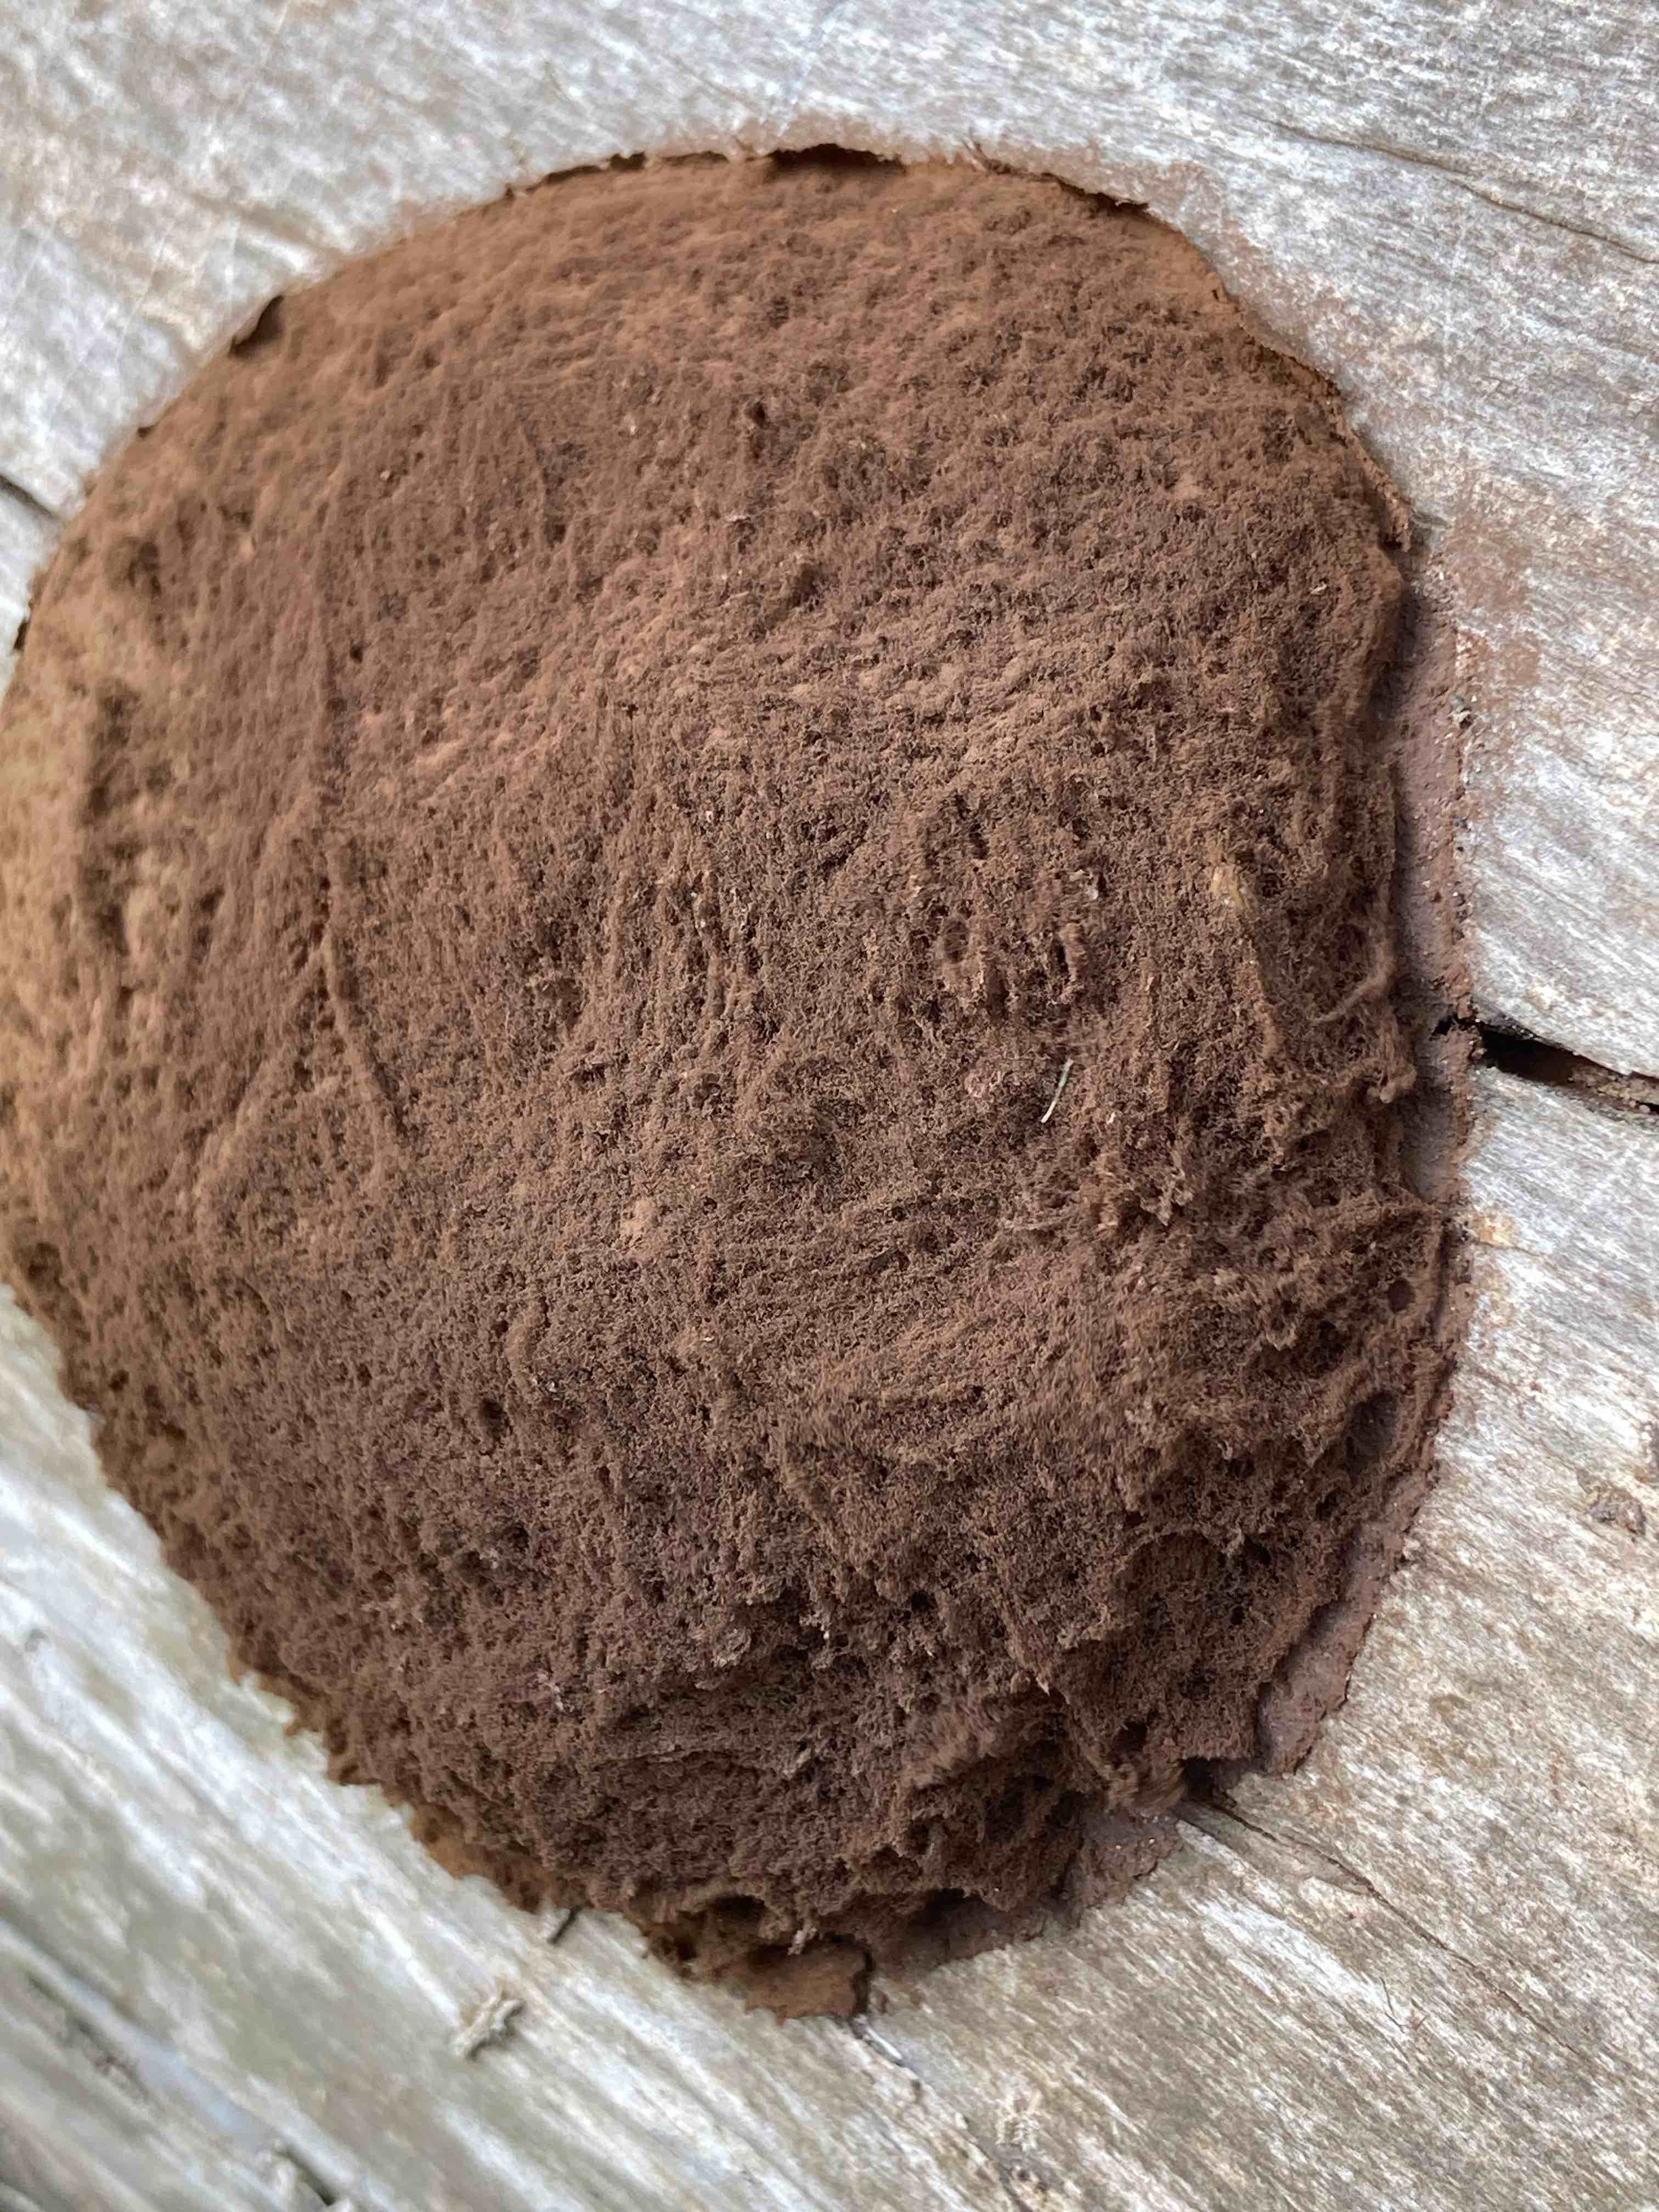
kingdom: Protozoa
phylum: Mycetozoa
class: Myxomycetes
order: Cribrariales
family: Tubiferaceae
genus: Reticularia
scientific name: Reticularia
